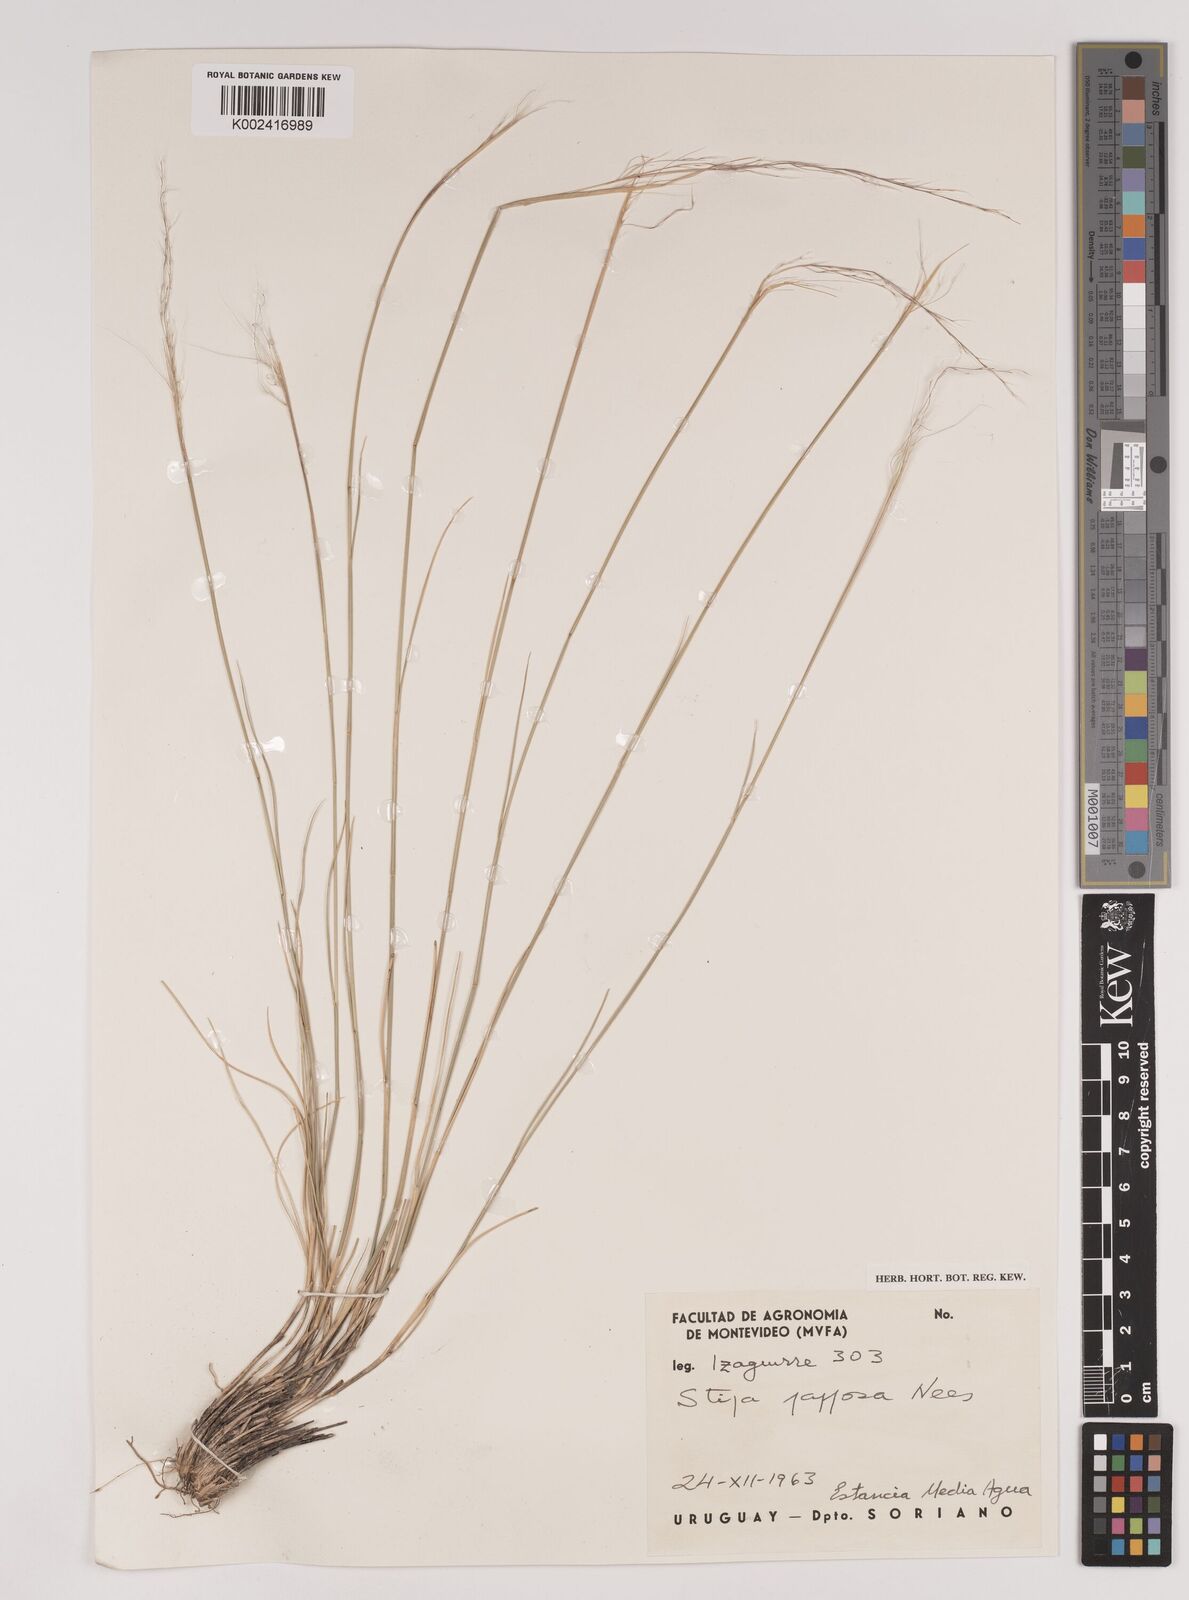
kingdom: Plantae
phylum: Tracheophyta
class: Liliopsida
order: Poales
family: Poaceae
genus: Jarava
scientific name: Jarava plumosa
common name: South american rice grass
